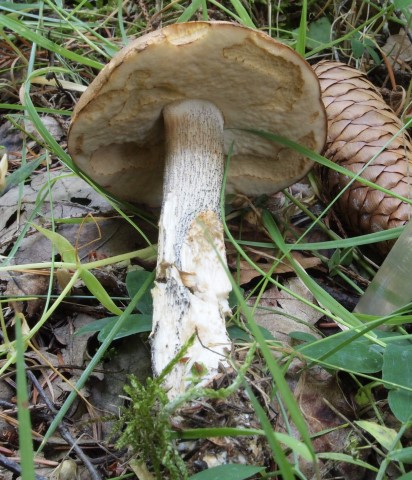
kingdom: Fungi
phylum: Basidiomycota
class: Agaricomycetes
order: Boletales
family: Boletaceae
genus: Leccinum
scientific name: Leccinum scabrum
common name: brun skælrørhat
